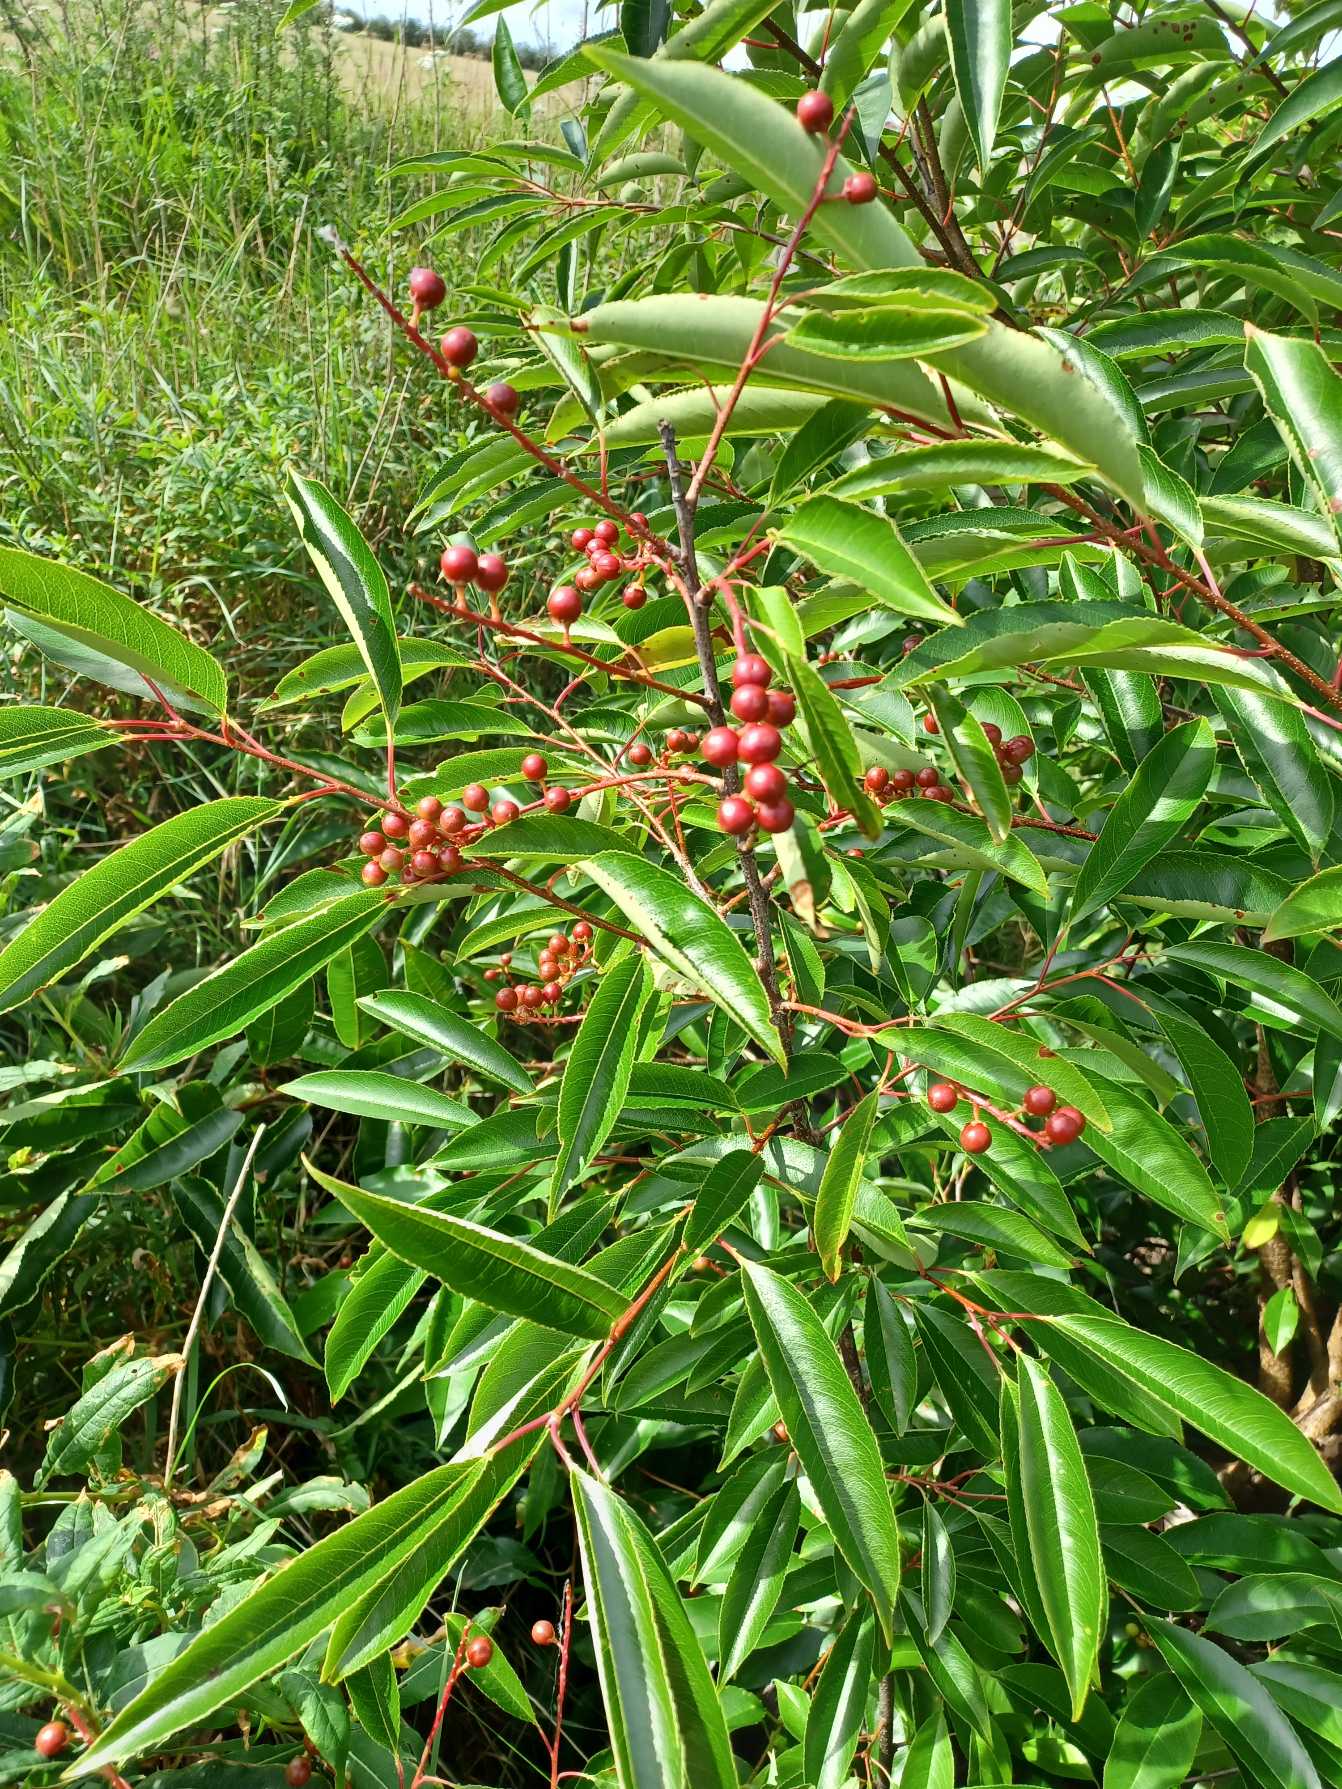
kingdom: Plantae
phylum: Tracheophyta
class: Magnoliopsida
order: Rosales
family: Rosaceae
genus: Prunus
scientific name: Prunus serotina
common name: Glansbladet hæg
